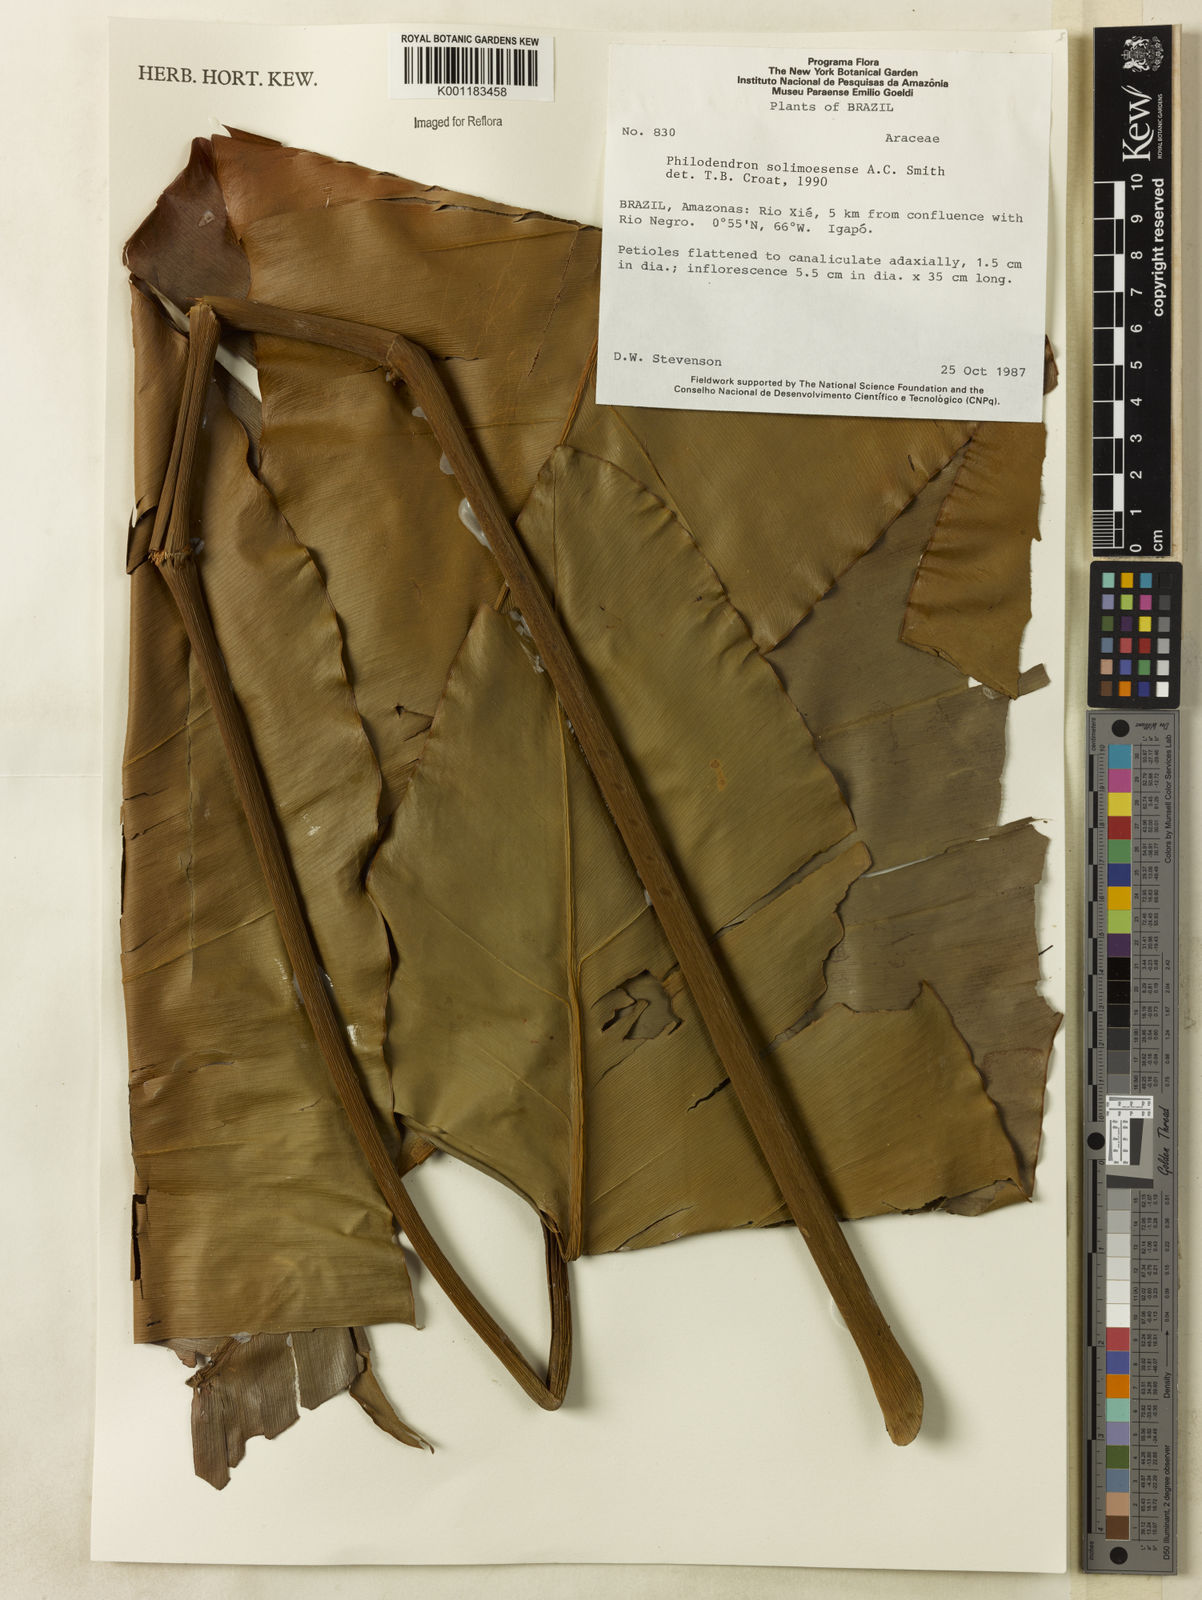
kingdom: Plantae
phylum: Tracheophyta
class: Liliopsida
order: Alismatales
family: Araceae
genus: Thaumatophyllum
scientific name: Thaumatophyllum solimoesense
